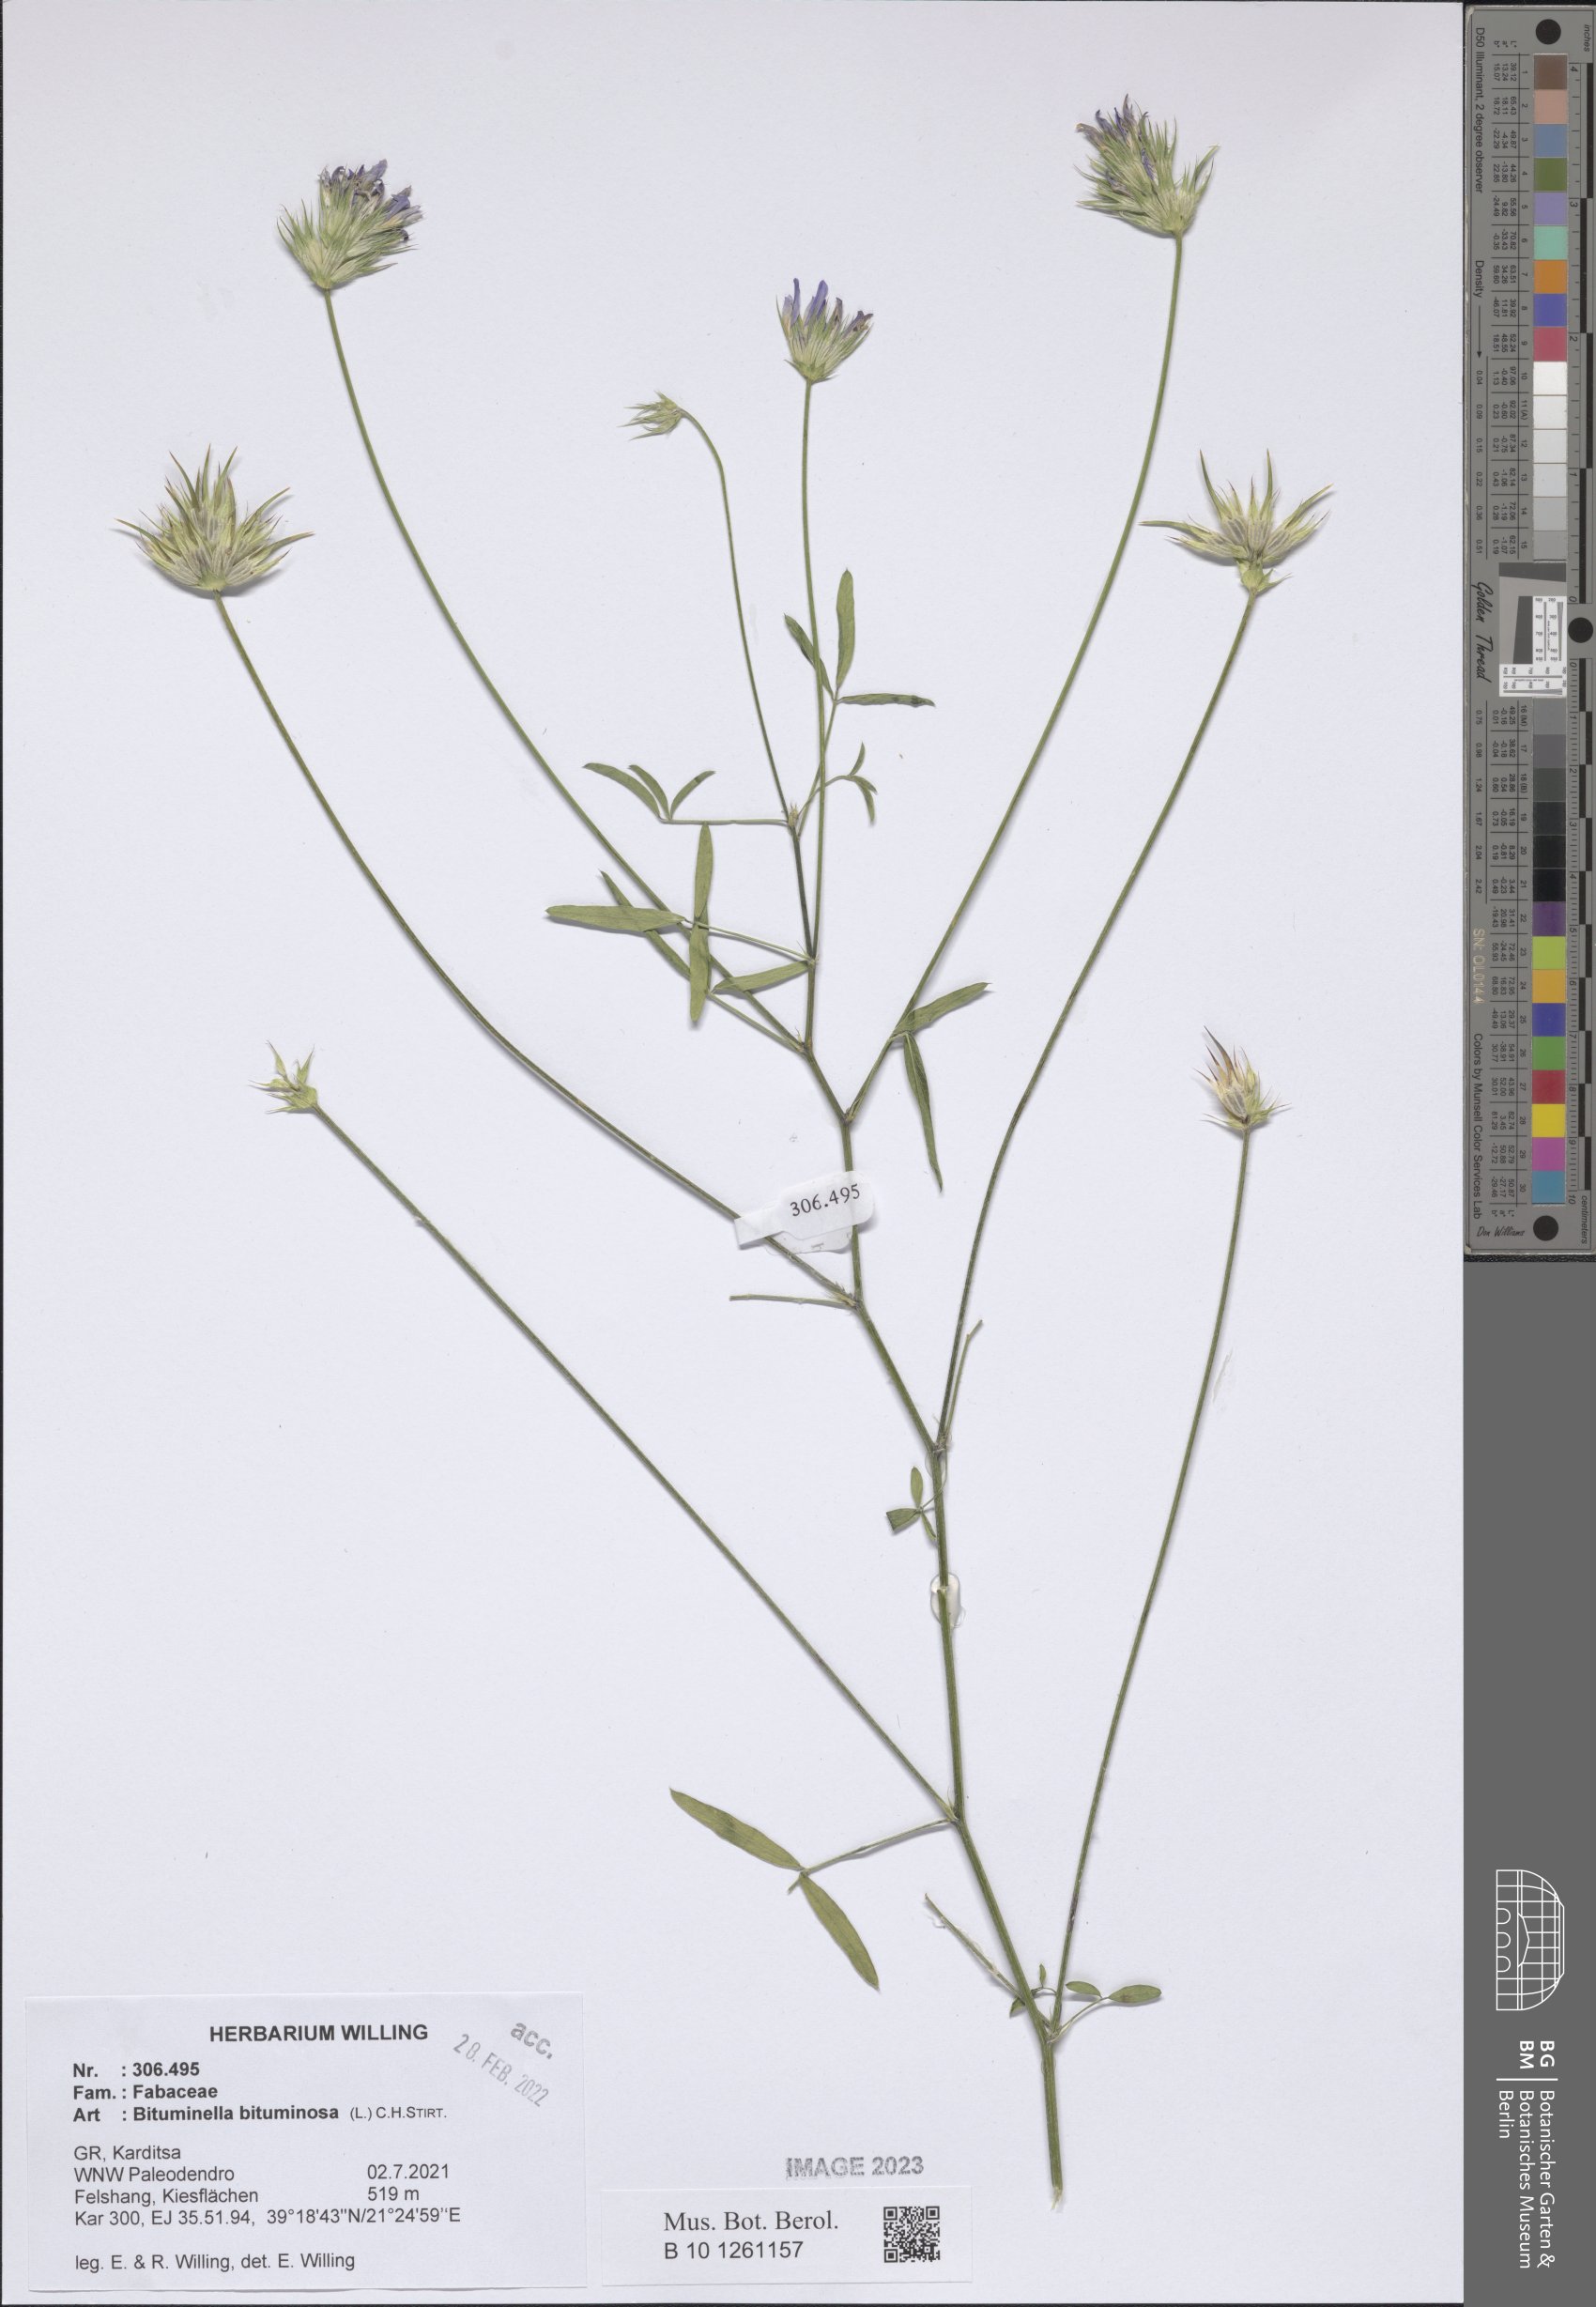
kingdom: Plantae
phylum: Tracheophyta
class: Magnoliopsida
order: Fabales
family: Fabaceae
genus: Bituminaria
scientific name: Bituminaria bituminosa
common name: Arabian pea
